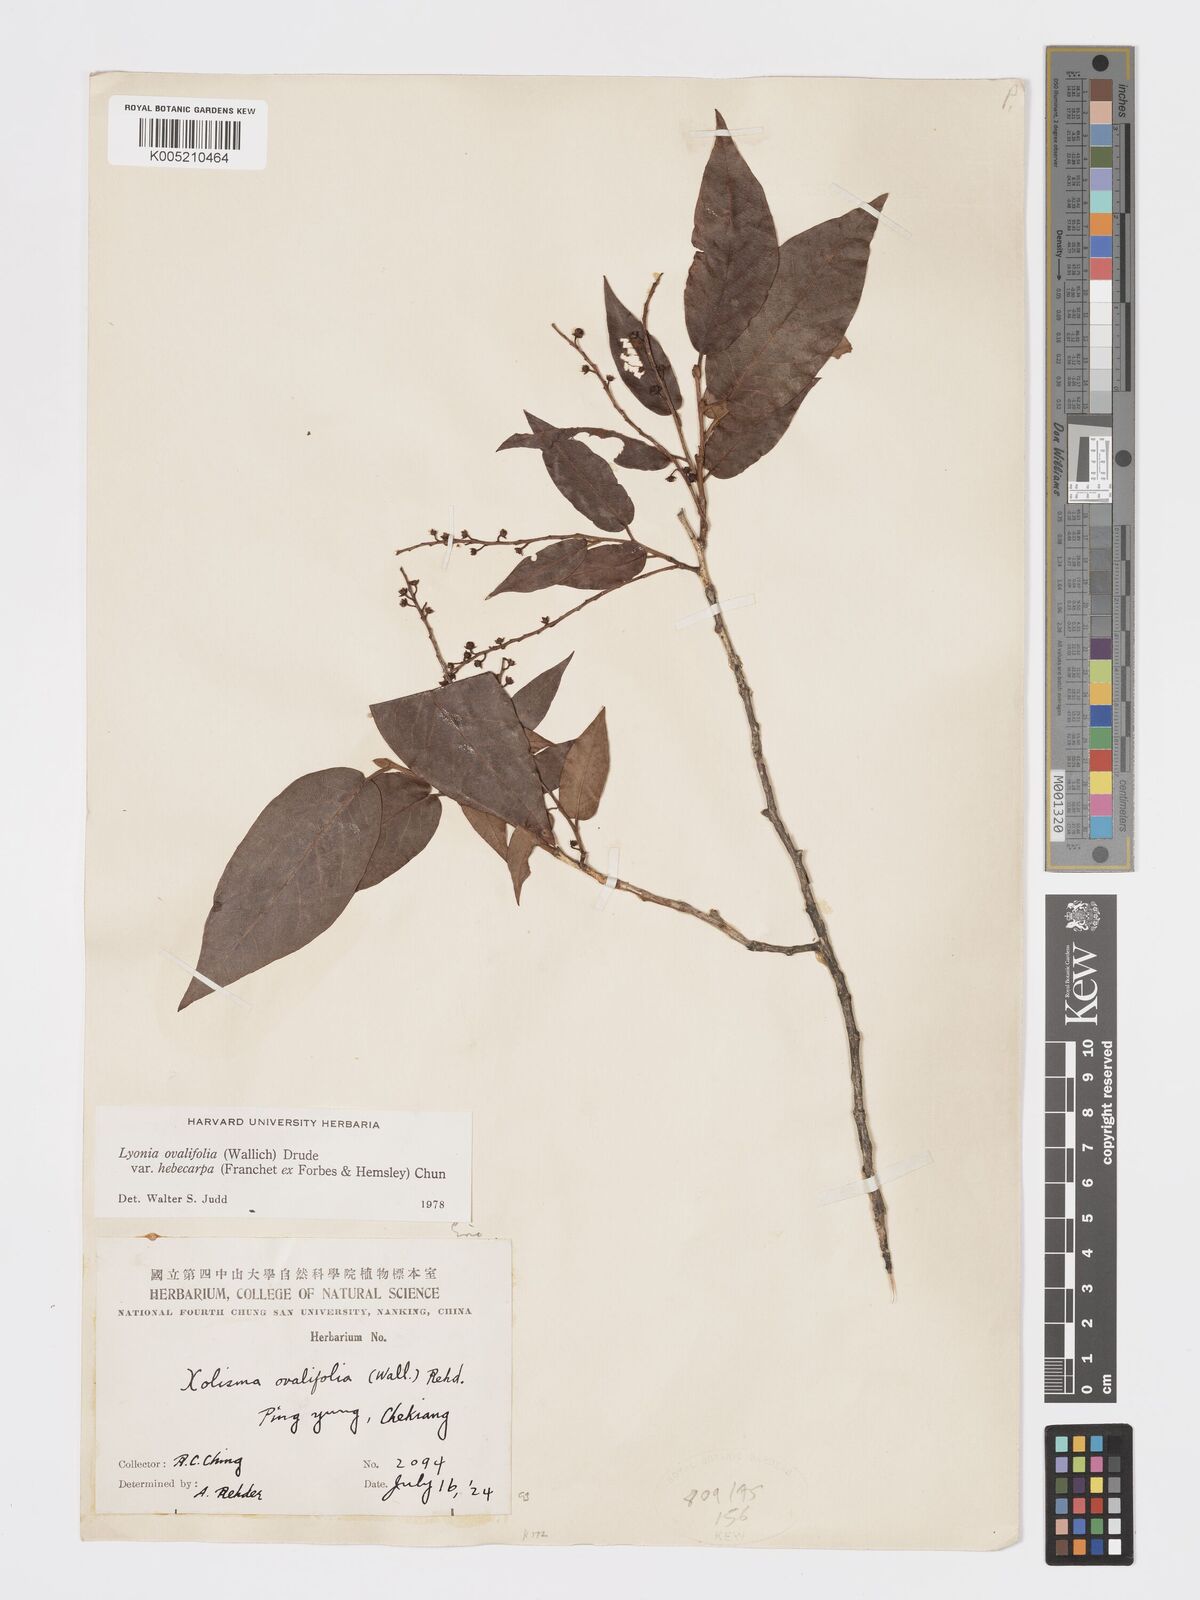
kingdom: Plantae
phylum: Tracheophyta
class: Magnoliopsida
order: Ericales
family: Ericaceae
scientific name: Ericaceae
